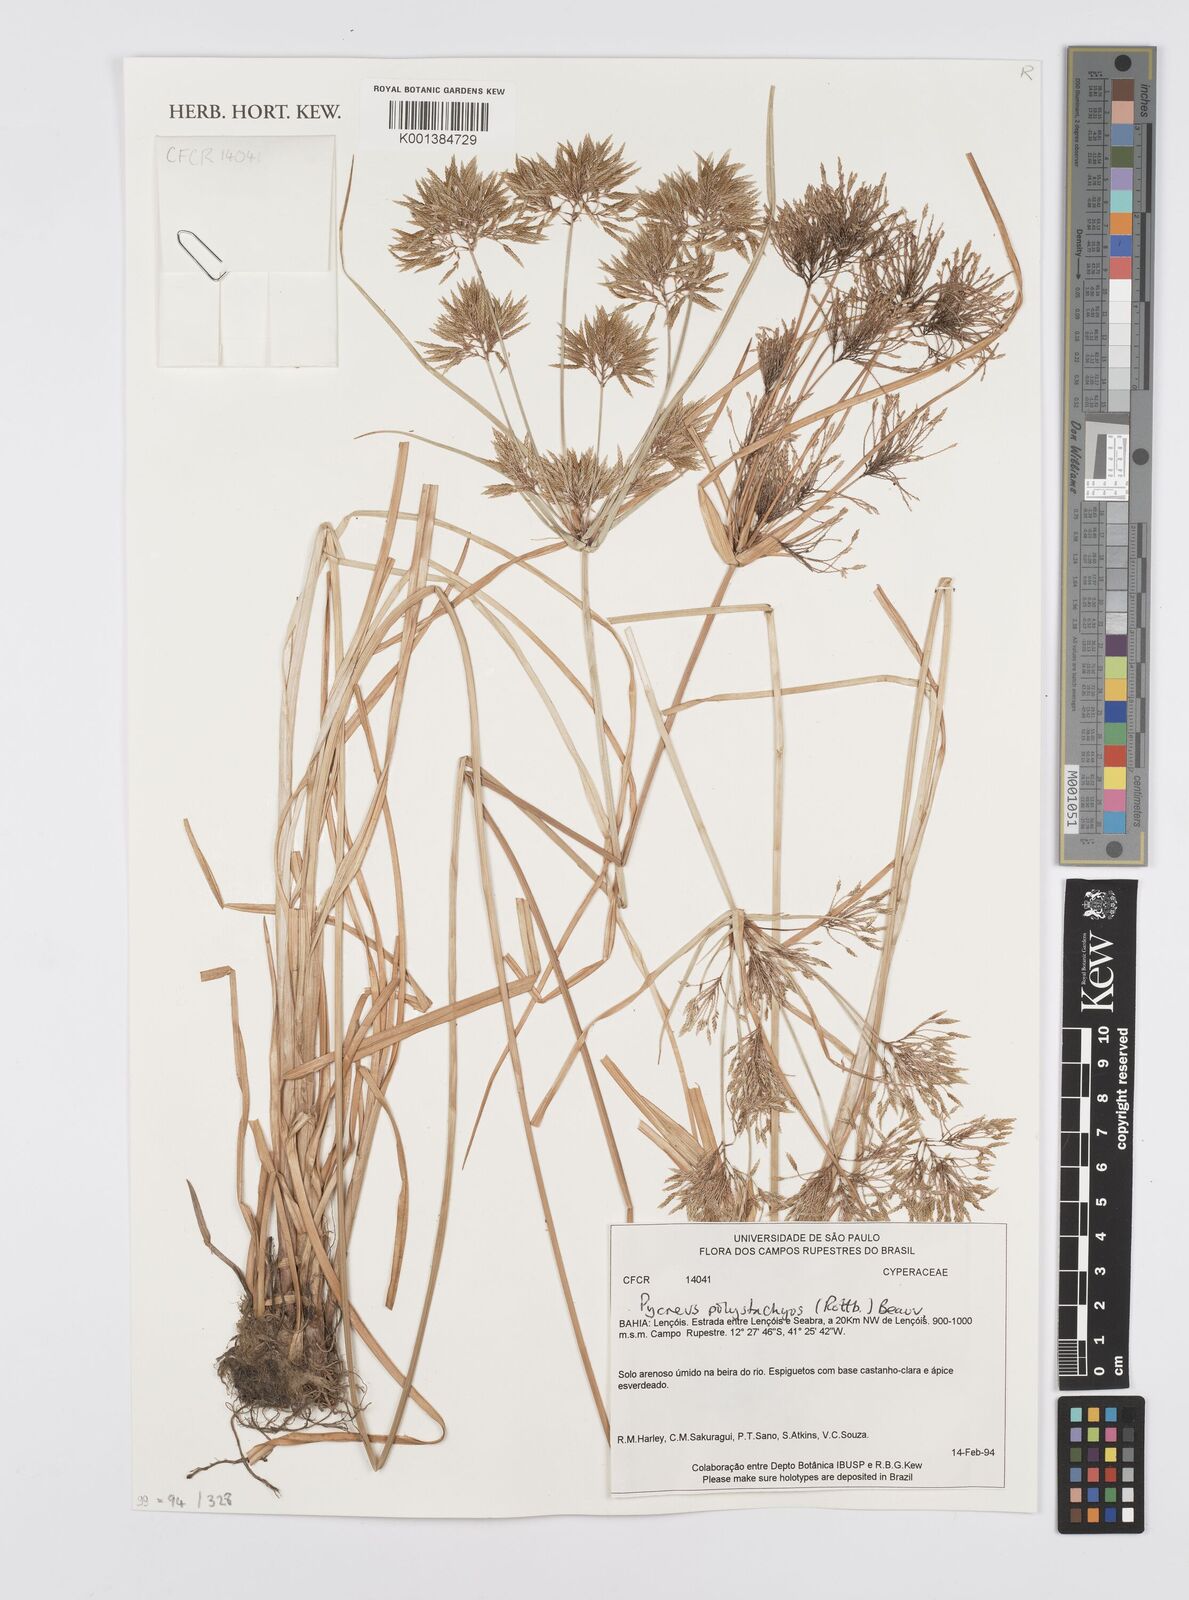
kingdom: Plantae
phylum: Tracheophyta
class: Liliopsida
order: Poales
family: Cyperaceae
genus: Cyperus
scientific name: Cyperus polystachyos
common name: Bunchy flat sedge
